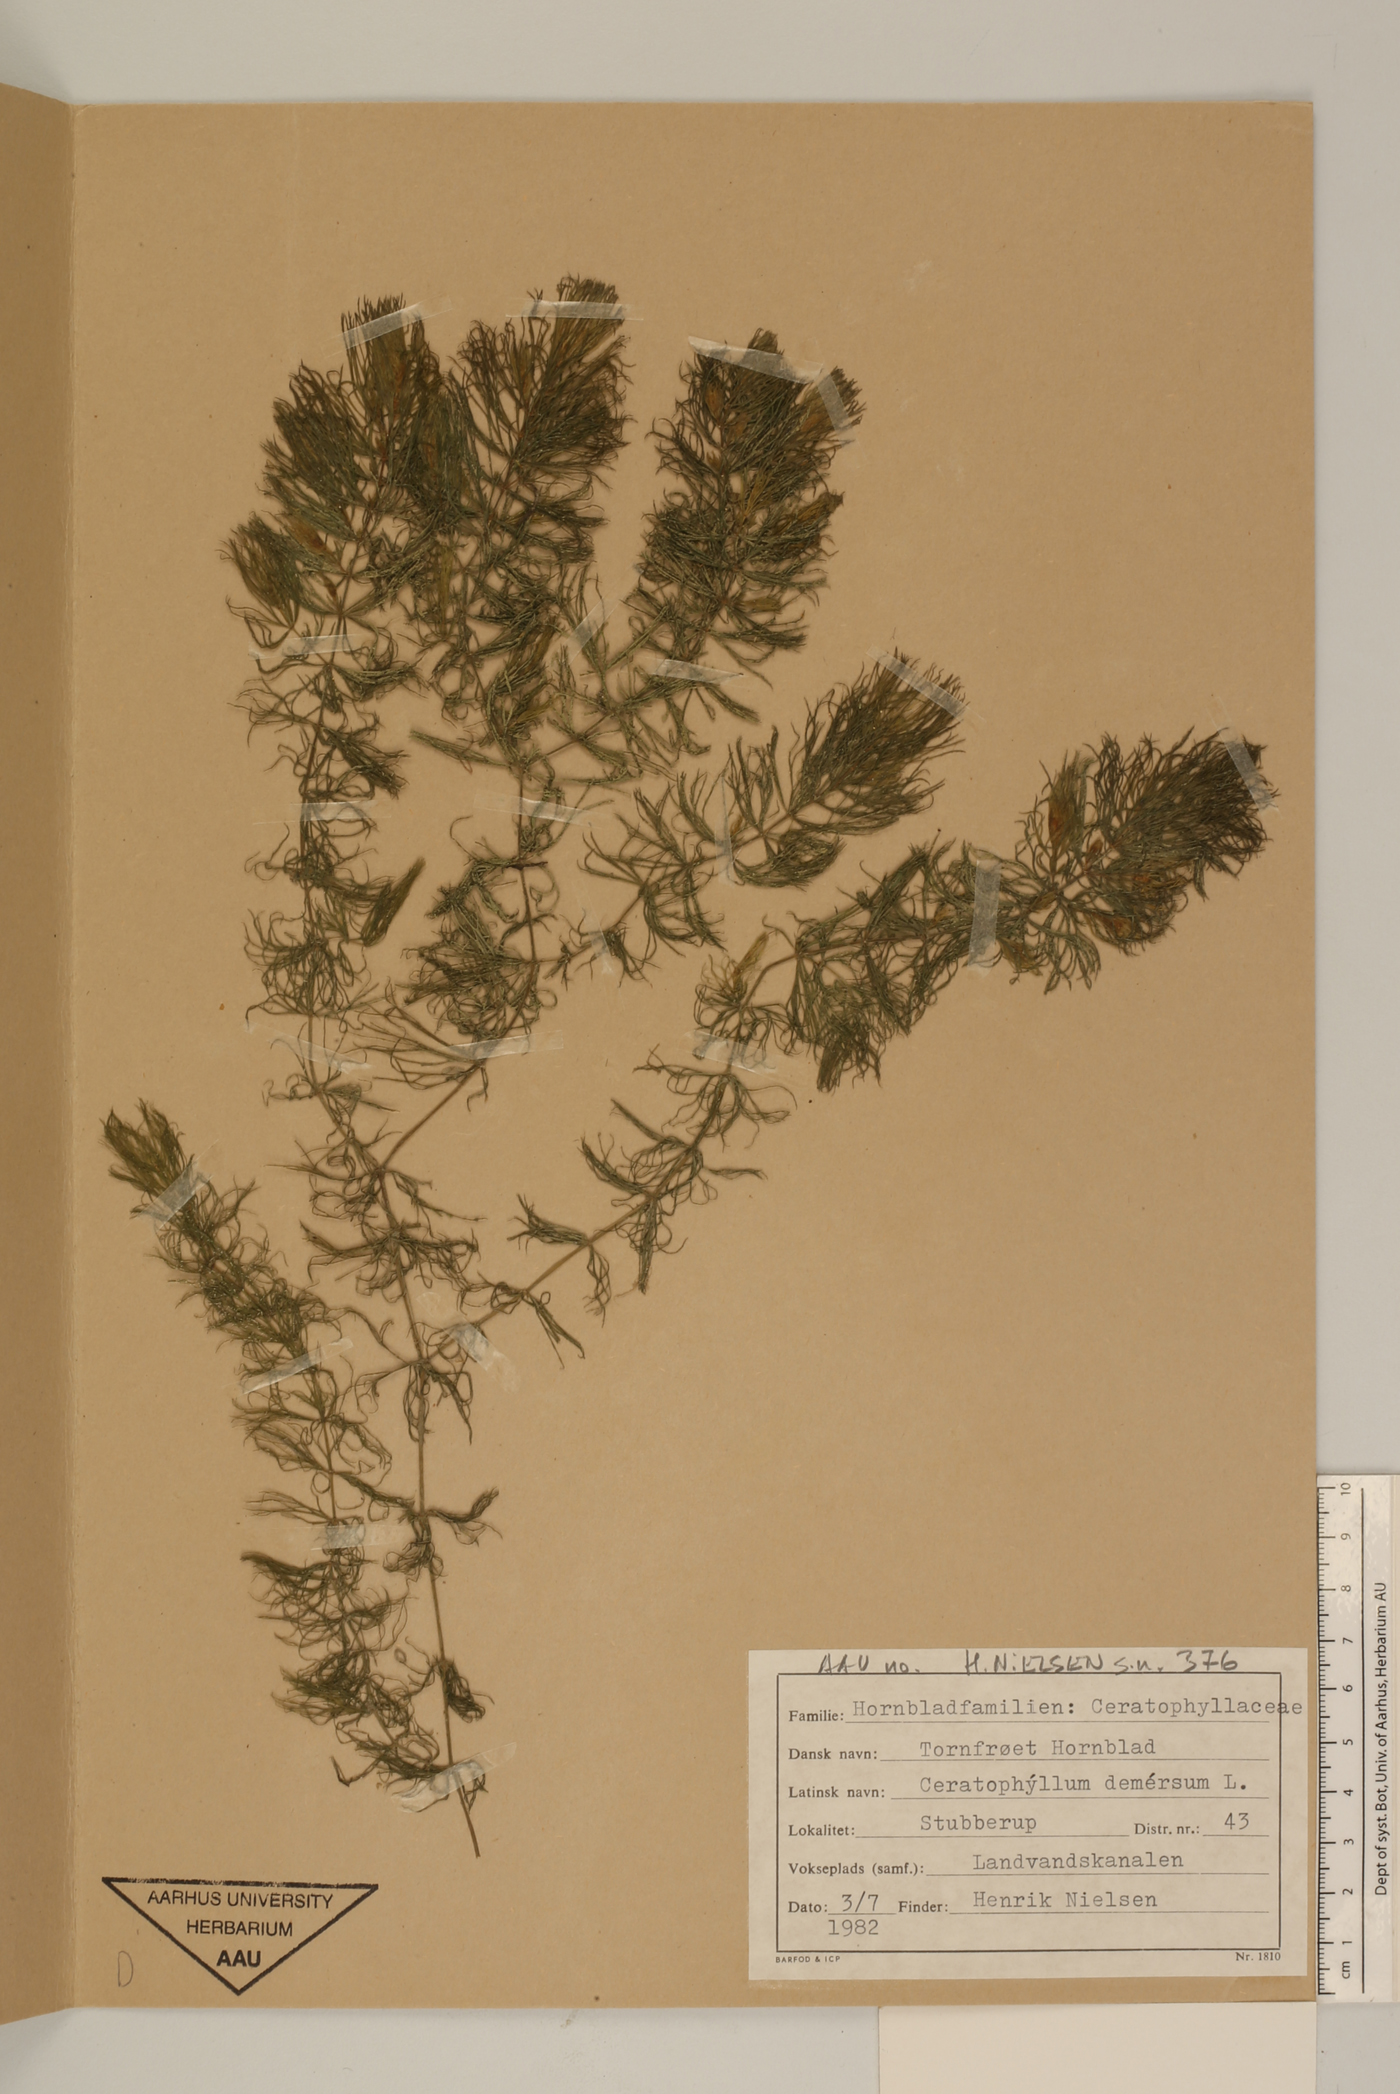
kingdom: Plantae
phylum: Tracheophyta
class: Magnoliopsida
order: Ceratophyllales
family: Ceratophyllaceae
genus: Ceratophyllum
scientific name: Ceratophyllum demersum
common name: Rigid hornwort
